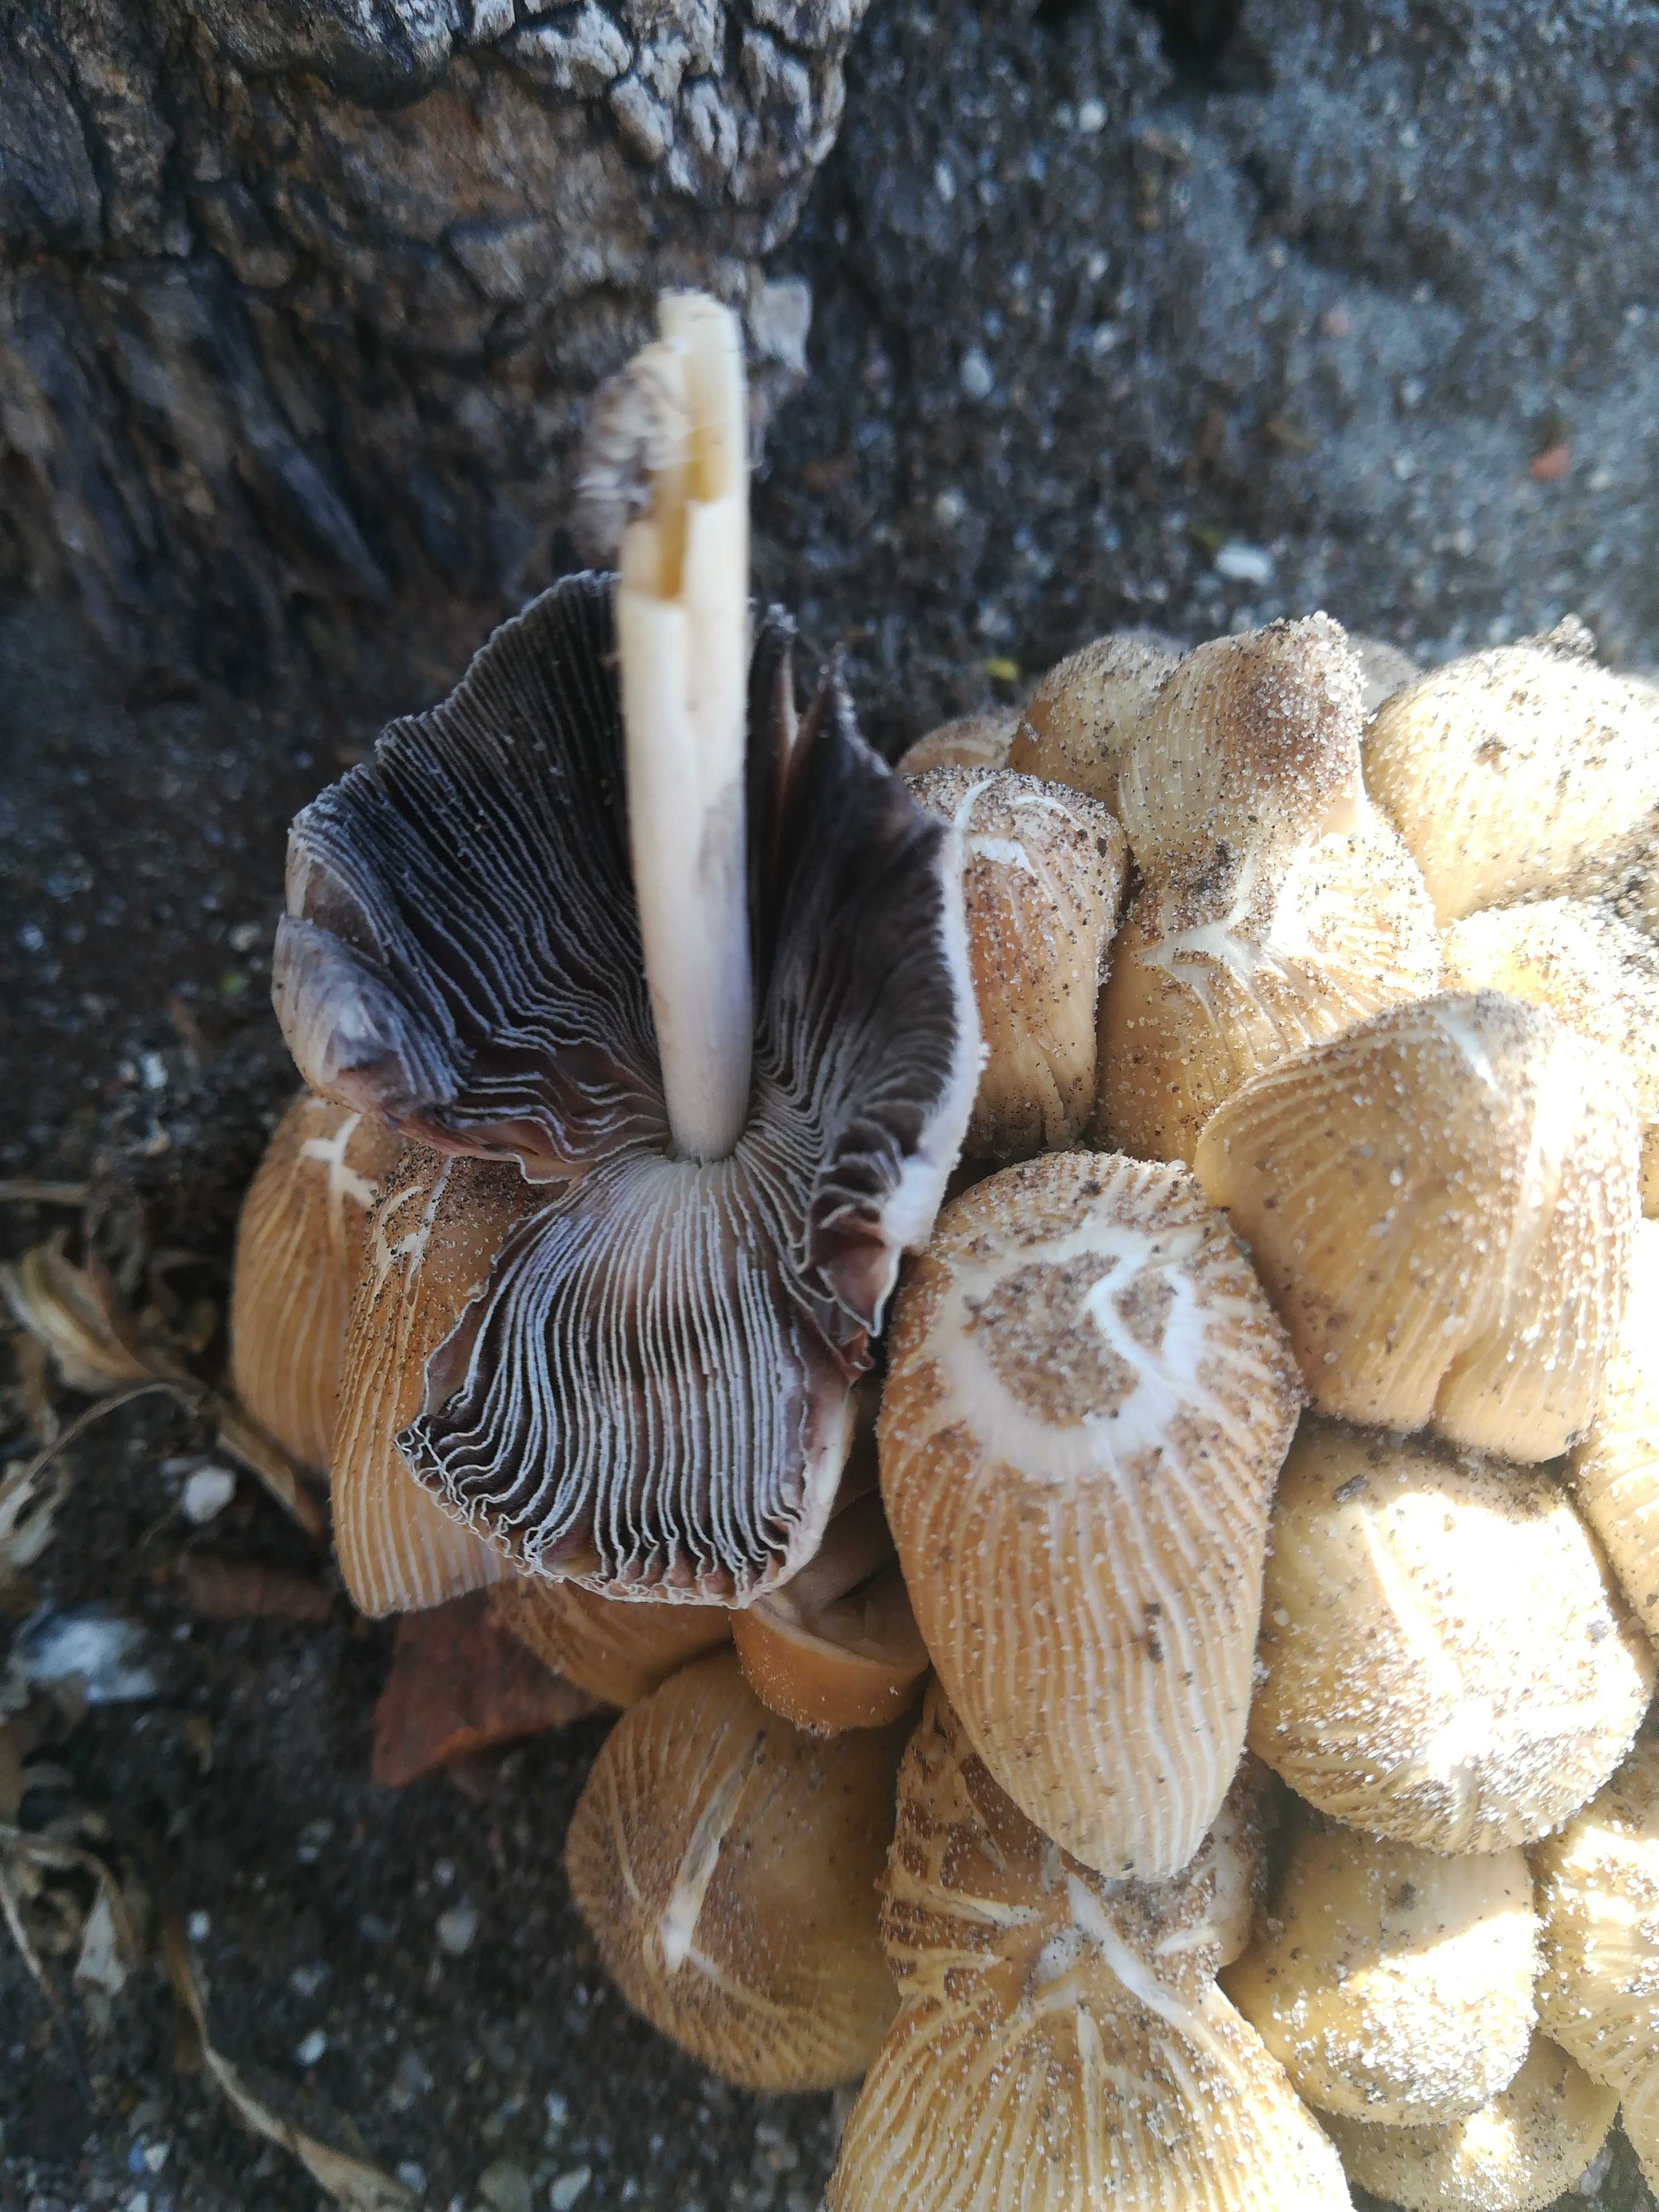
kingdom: Fungi
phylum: Basidiomycota
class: Agaricomycetes
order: Agaricales
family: Psathyrellaceae
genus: Coprinellus
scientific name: Coprinellus
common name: blækhat
